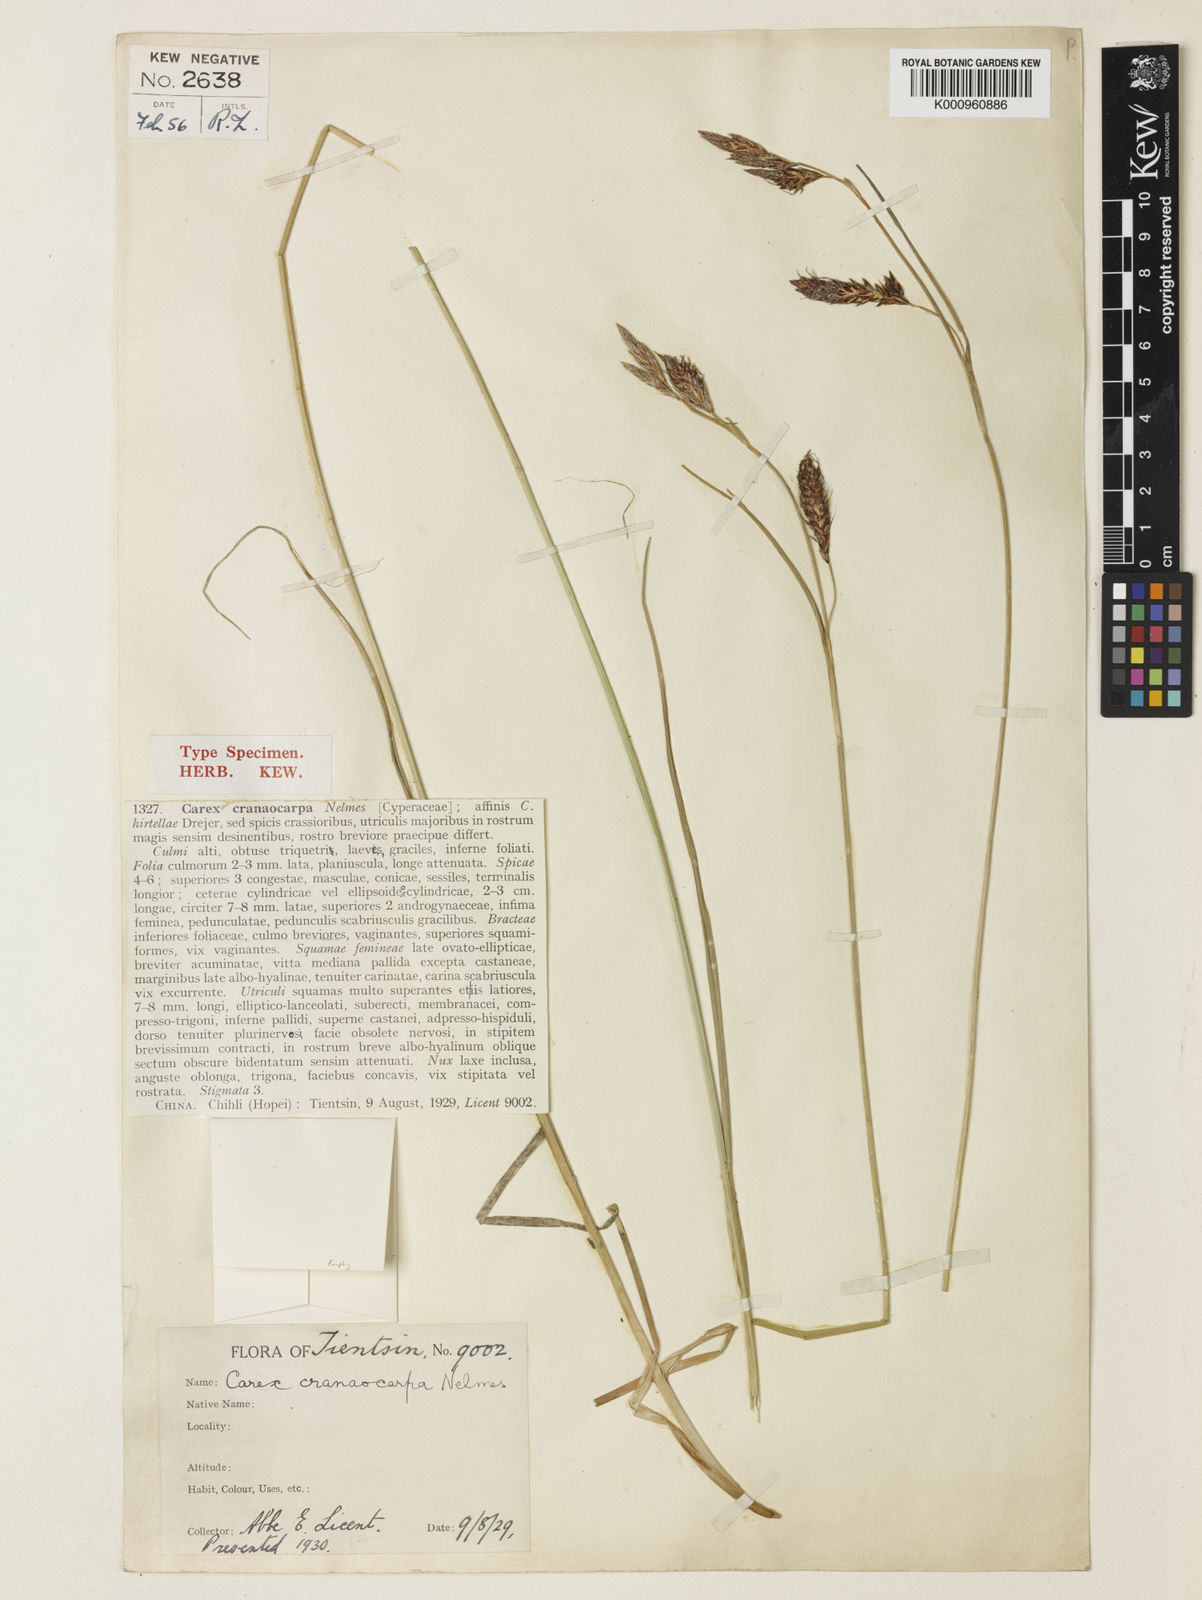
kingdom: Plantae
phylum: Tracheophyta
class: Liliopsida
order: Poales
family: Cyperaceae
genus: Carex
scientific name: Carex cranaocarpa
